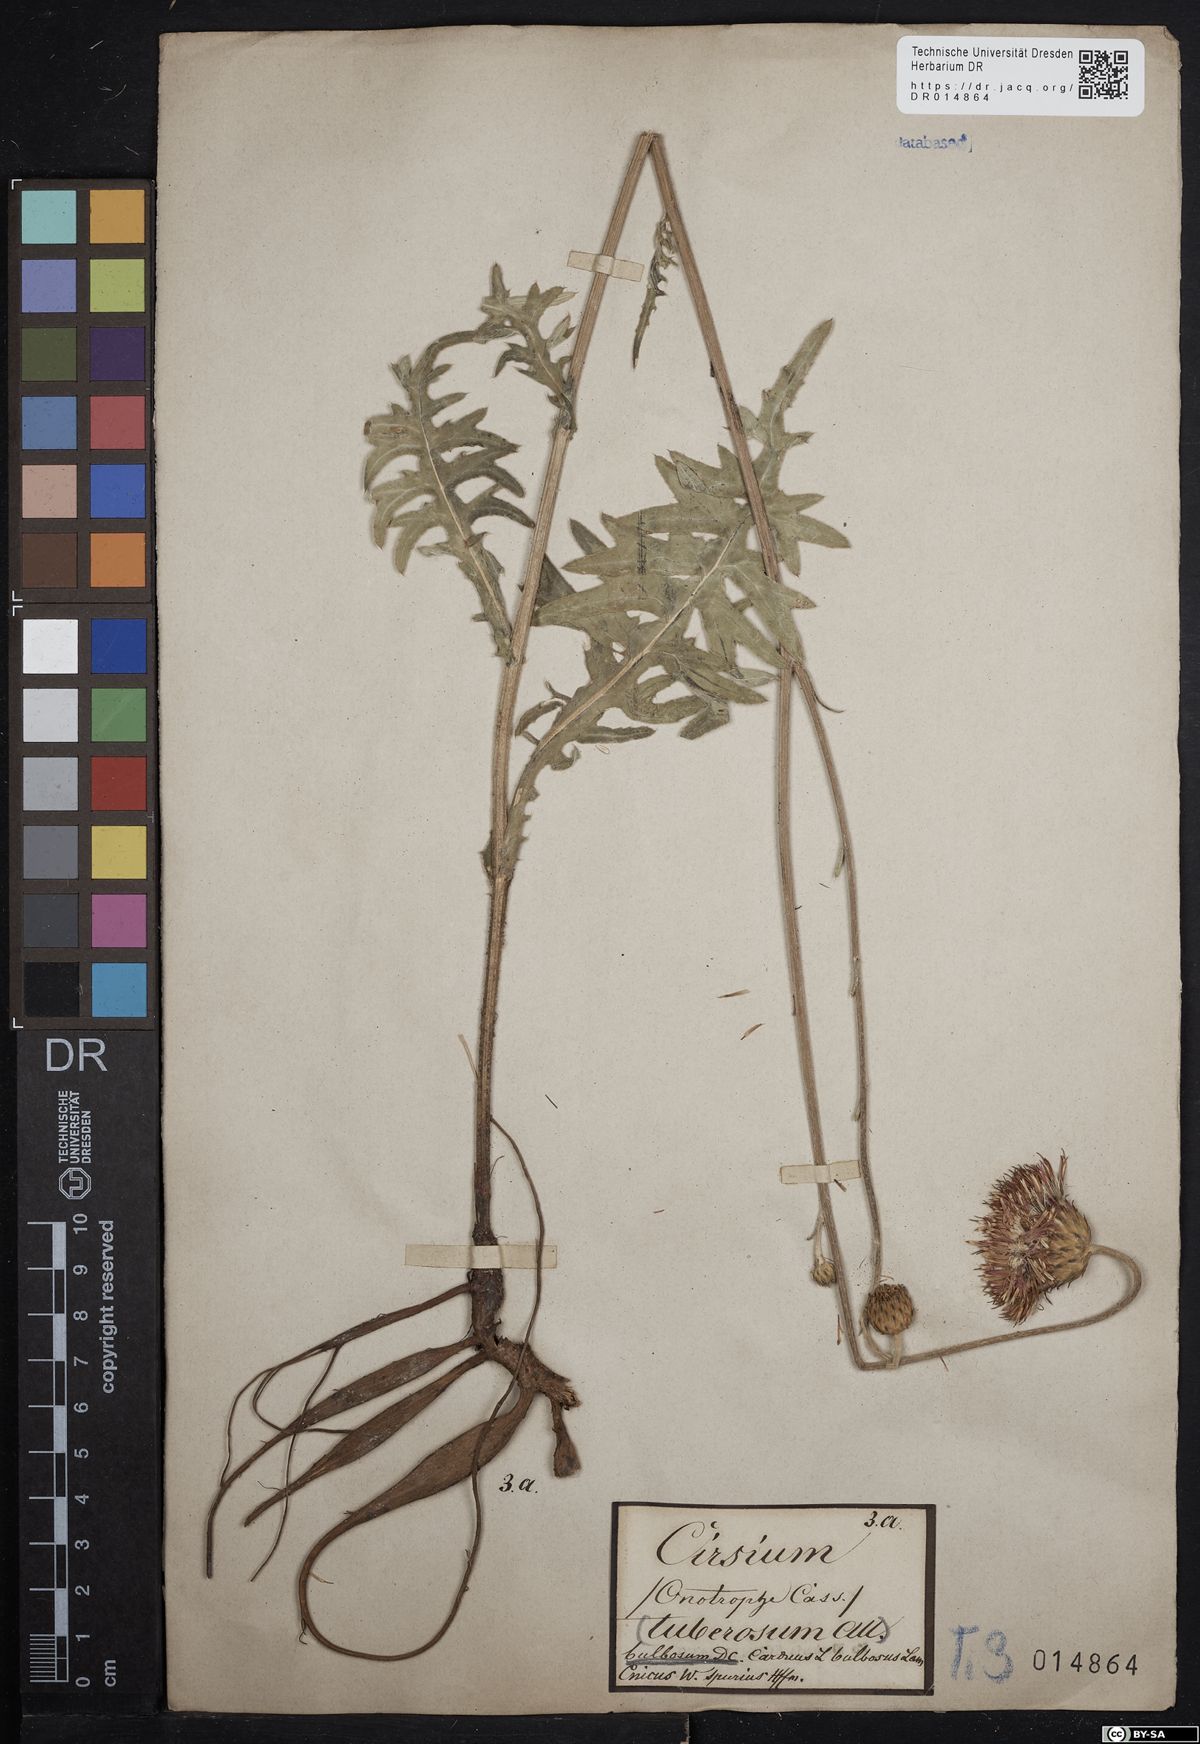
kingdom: Plantae
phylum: Tracheophyta
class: Magnoliopsida
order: Asterales
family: Asteraceae
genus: Cirsium
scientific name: Cirsium tuberosum
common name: Tuberous thistle
